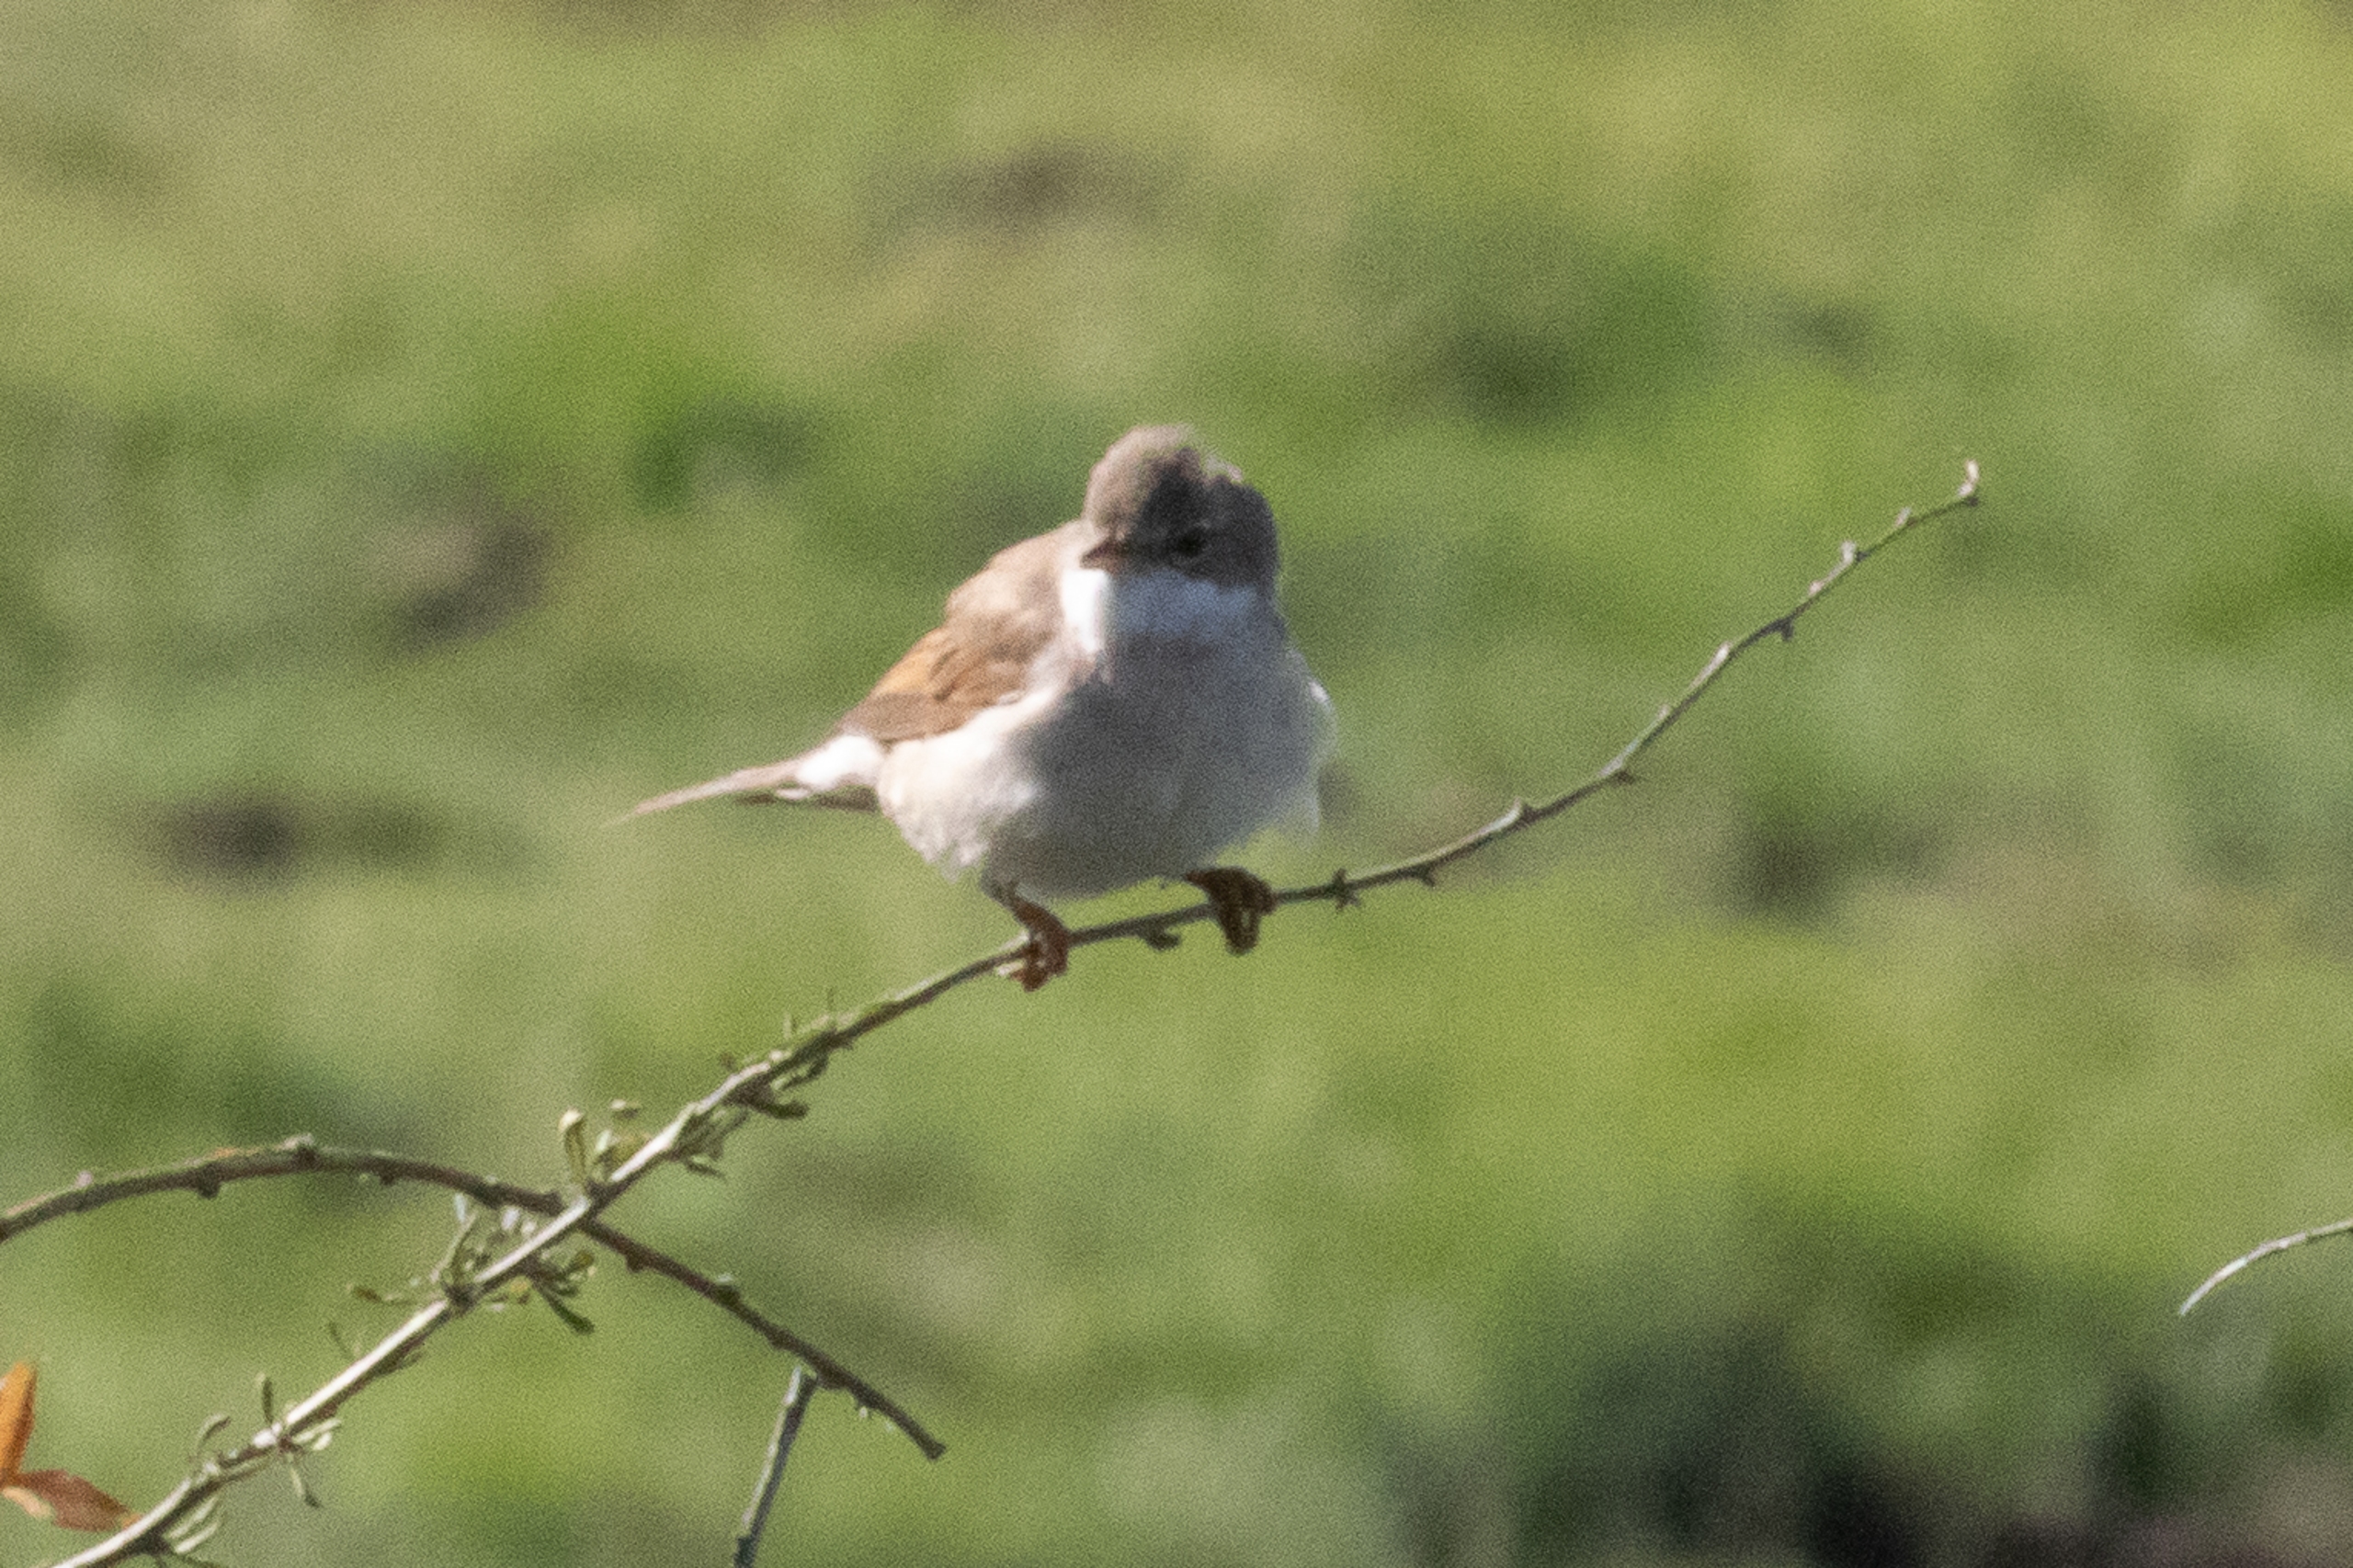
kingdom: Animalia
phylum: Chordata
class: Aves
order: Passeriformes
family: Sylviidae
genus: Sylvia
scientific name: Sylvia communis
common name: Tornsanger
